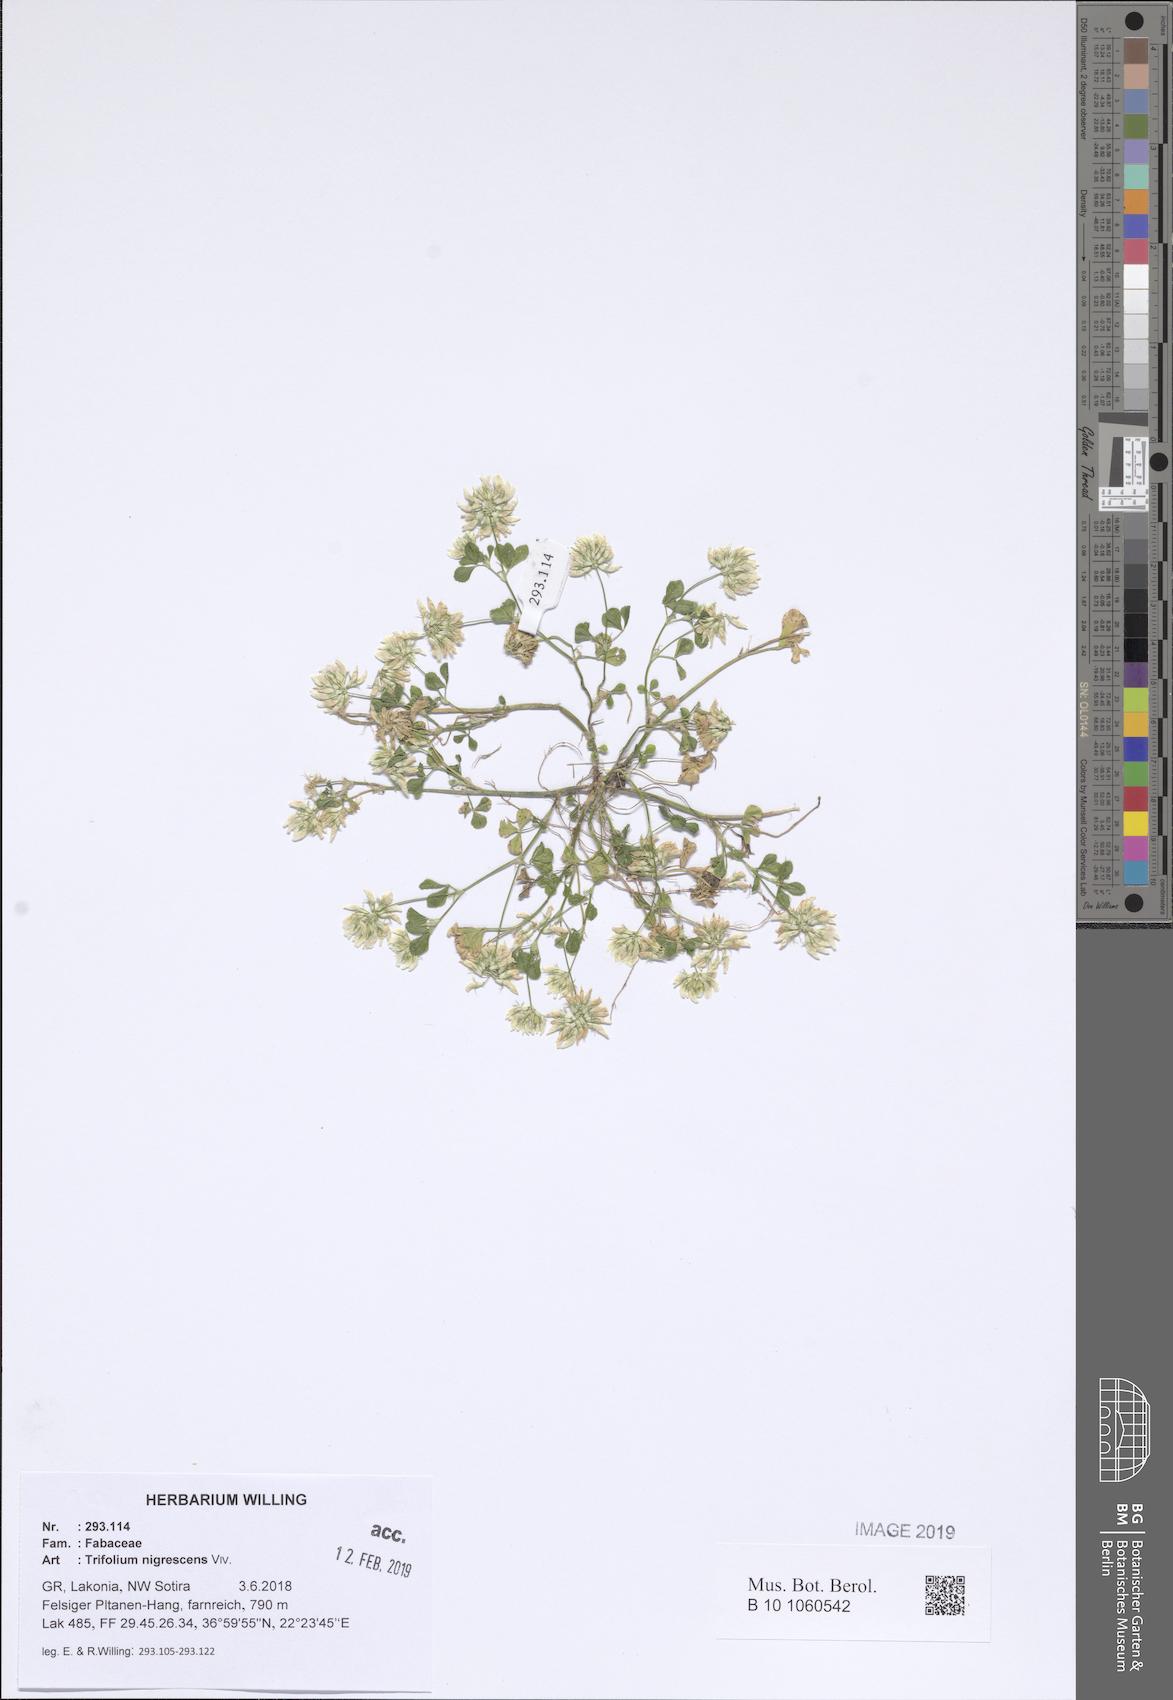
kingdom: Plantae
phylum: Tracheophyta
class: Magnoliopsida
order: Fabales
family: Fabaceae
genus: Trifolium
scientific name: Trifolium nigrescens
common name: Small white clover
